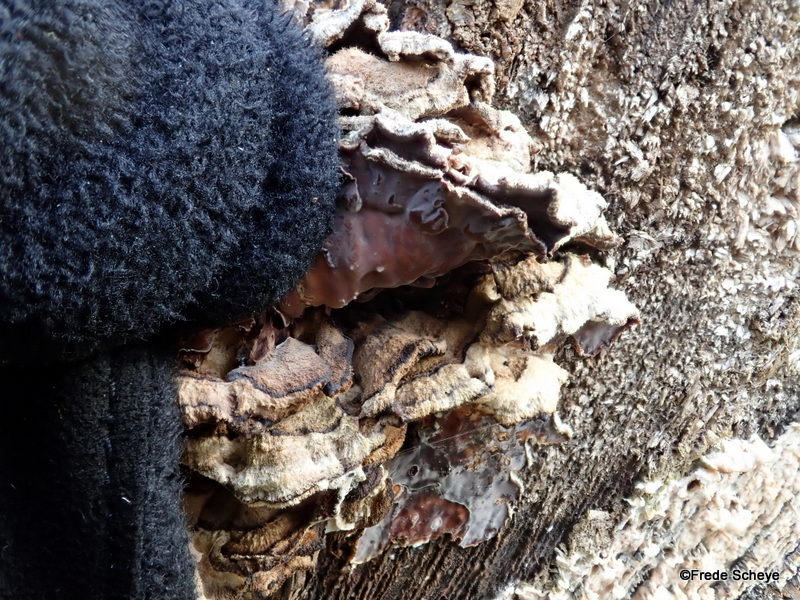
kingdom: Fungi
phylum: Basidiomycota
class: Agaricomycetes
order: Agaricales
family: Cyphellaceae
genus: Chondrostereum
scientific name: Chondrostereum purpureum
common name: purpurlædersvamp
